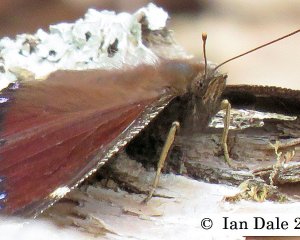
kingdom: Animalia
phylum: Arthropoda
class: Insecta
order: Lepidoptera
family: Nymphalidae
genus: Nymphalis
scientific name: Nymphalis antiopa
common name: Mourning Cloak
